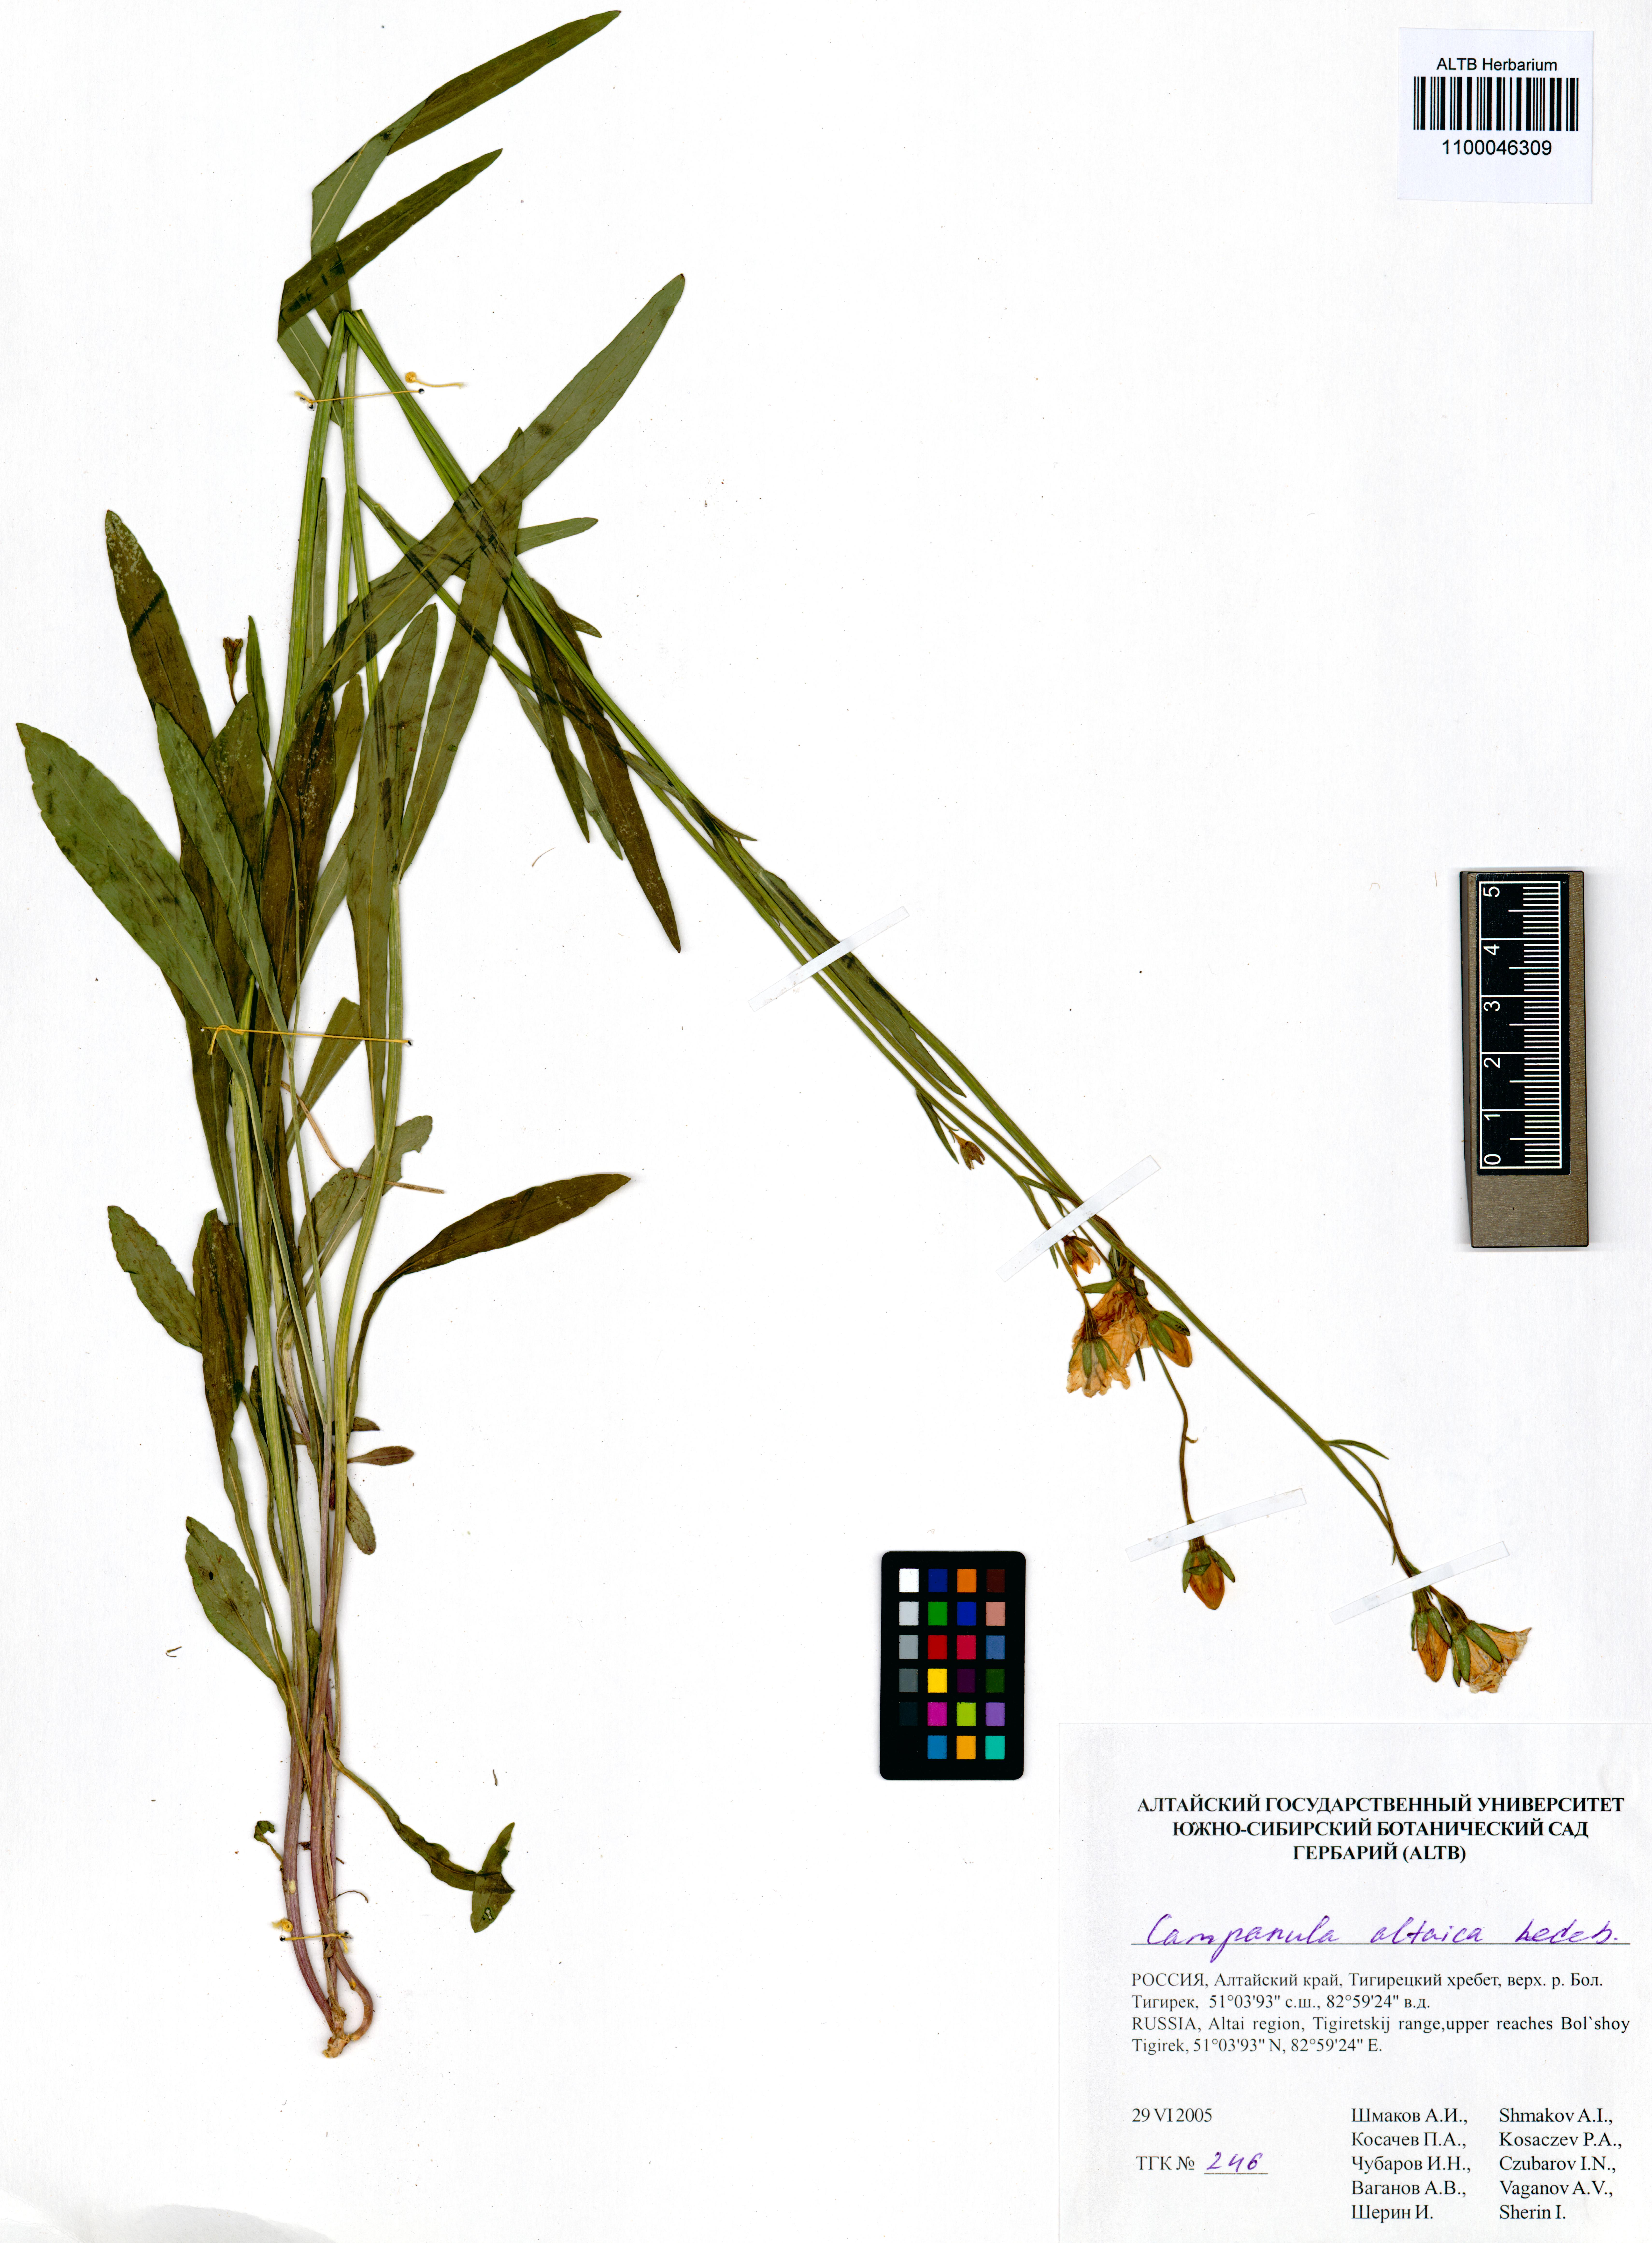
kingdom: Plantae
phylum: Tracheophyta
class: Magnoliopsida
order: Asterales
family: Campanulaceae
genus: Campanula
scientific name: Campanula stevenii
